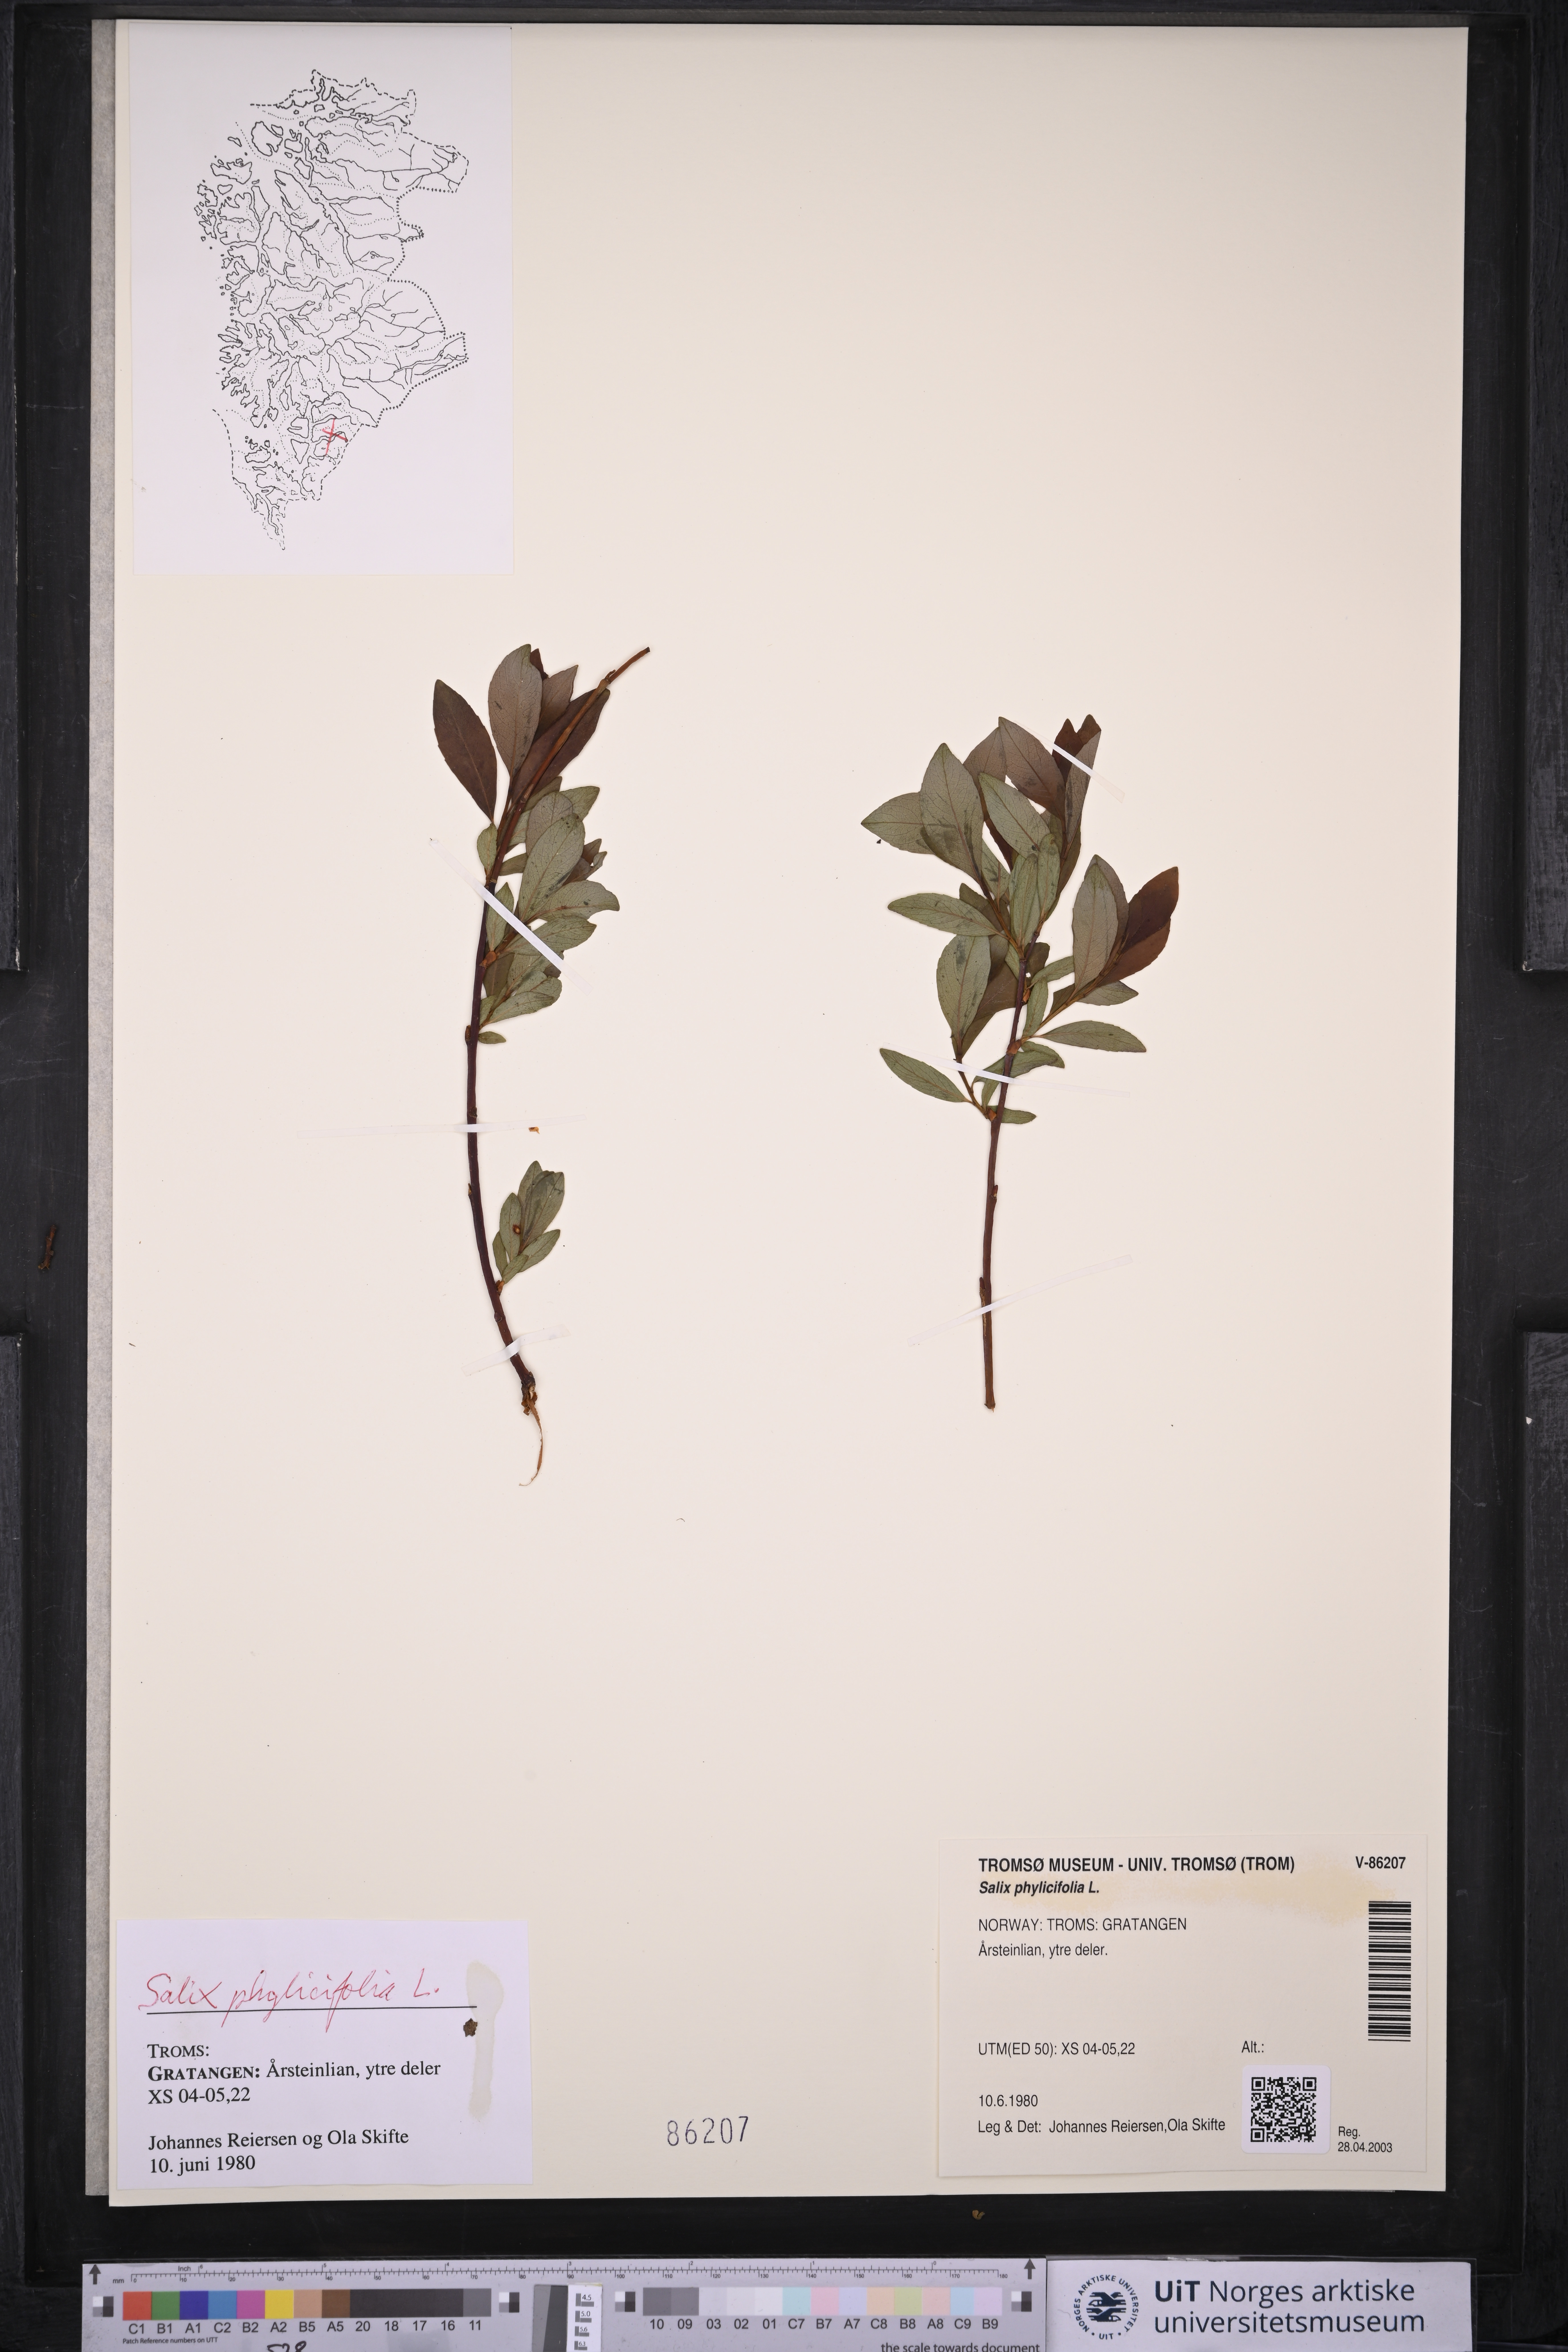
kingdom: Plantae
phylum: Tracheophyta
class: Magnoliopsida
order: Malpighiales
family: Salicaceae
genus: Salix
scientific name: Salix phylicifolia
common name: Tea-leaved willow
